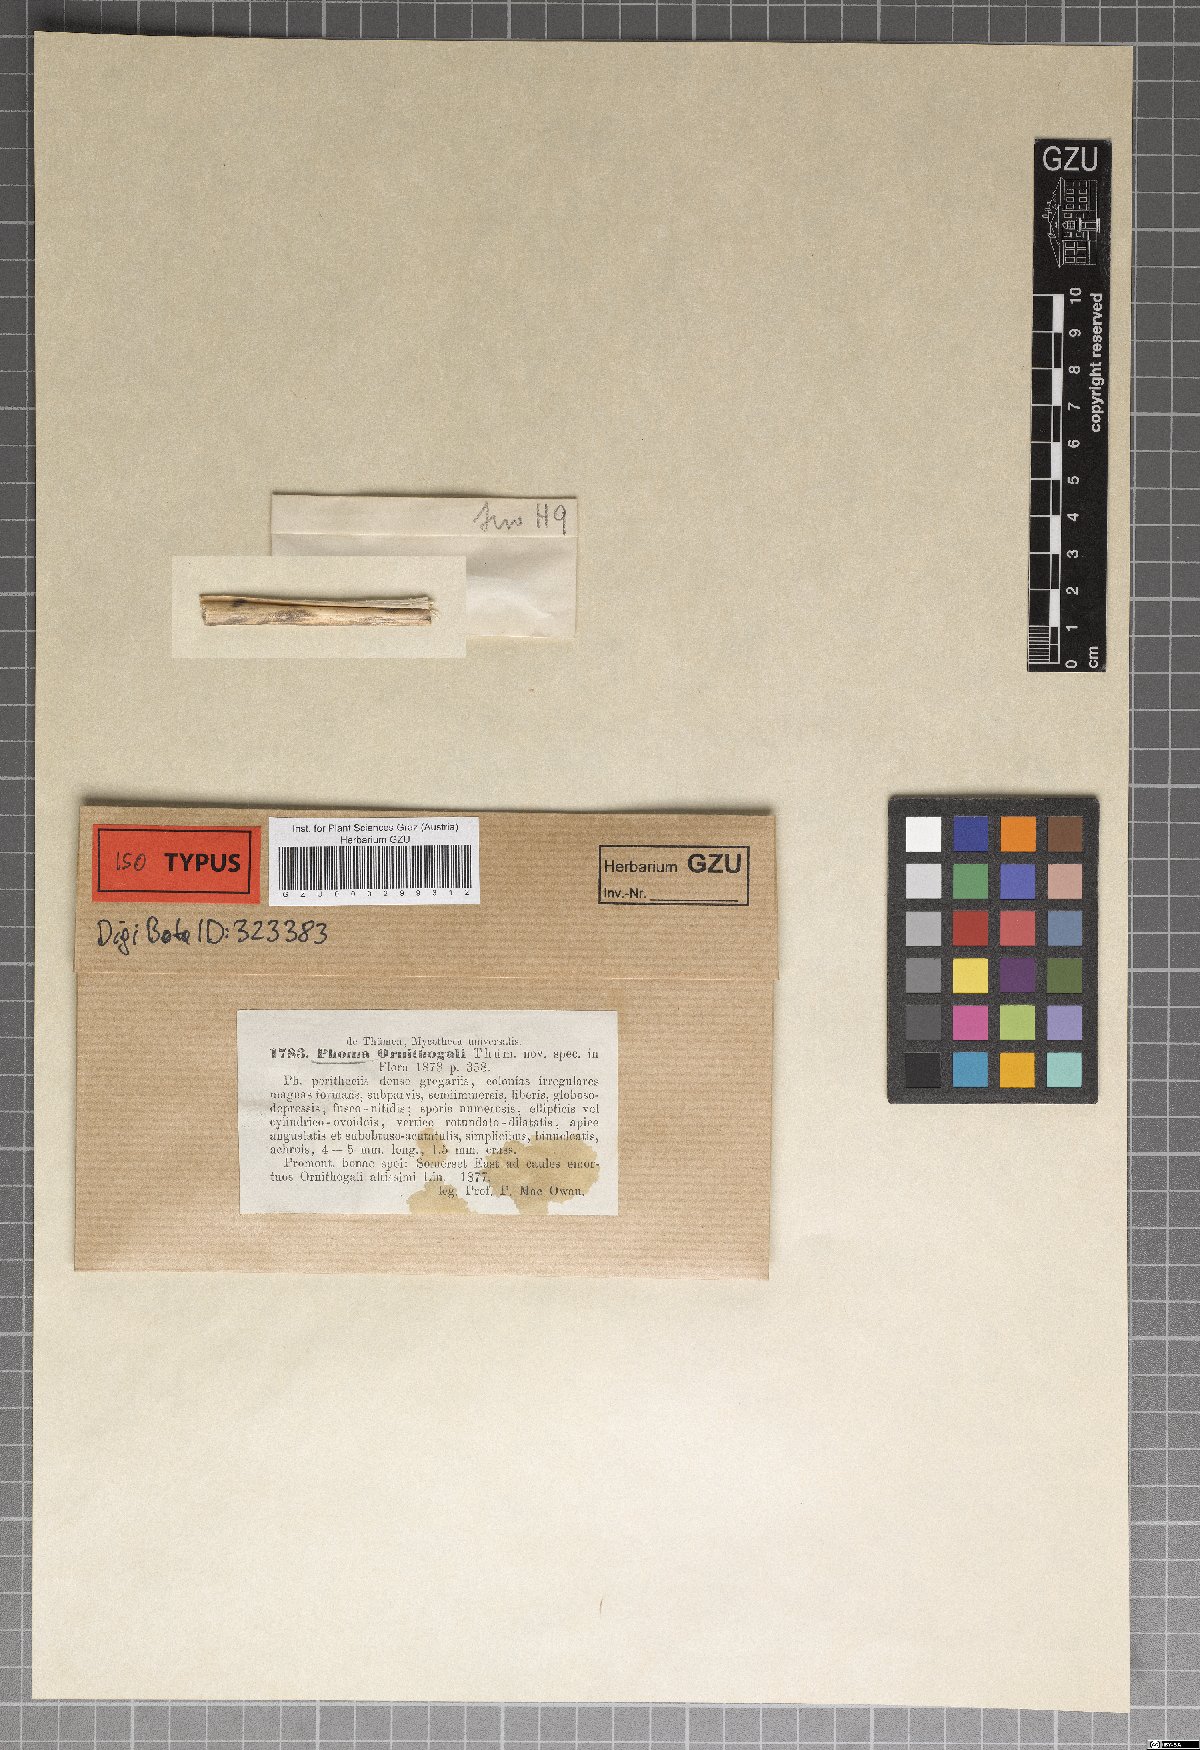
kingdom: Fungi
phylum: Ascomycota
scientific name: Ascomycota
